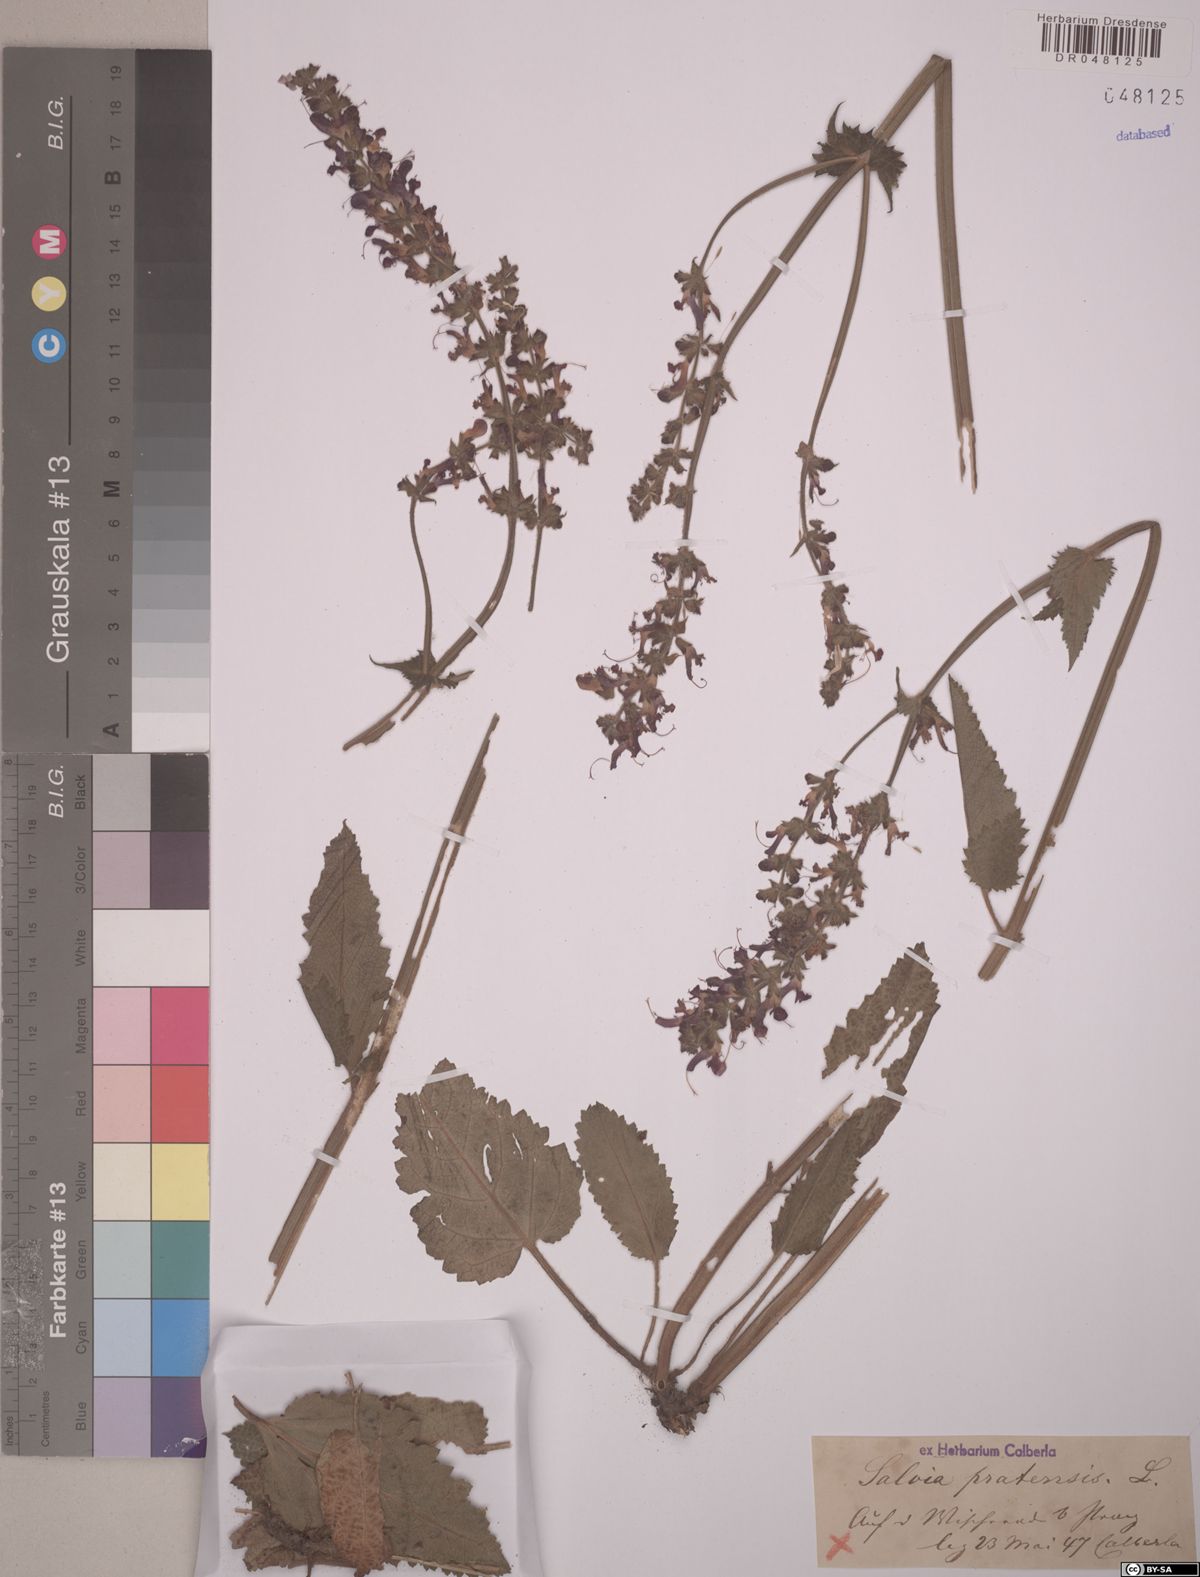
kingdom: Plantae
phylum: Tracheophyta
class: Magnoliopsida
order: Lamiales
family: Lamiaceae
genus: Salvia
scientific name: Salvia pratensis
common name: Meadow sage
